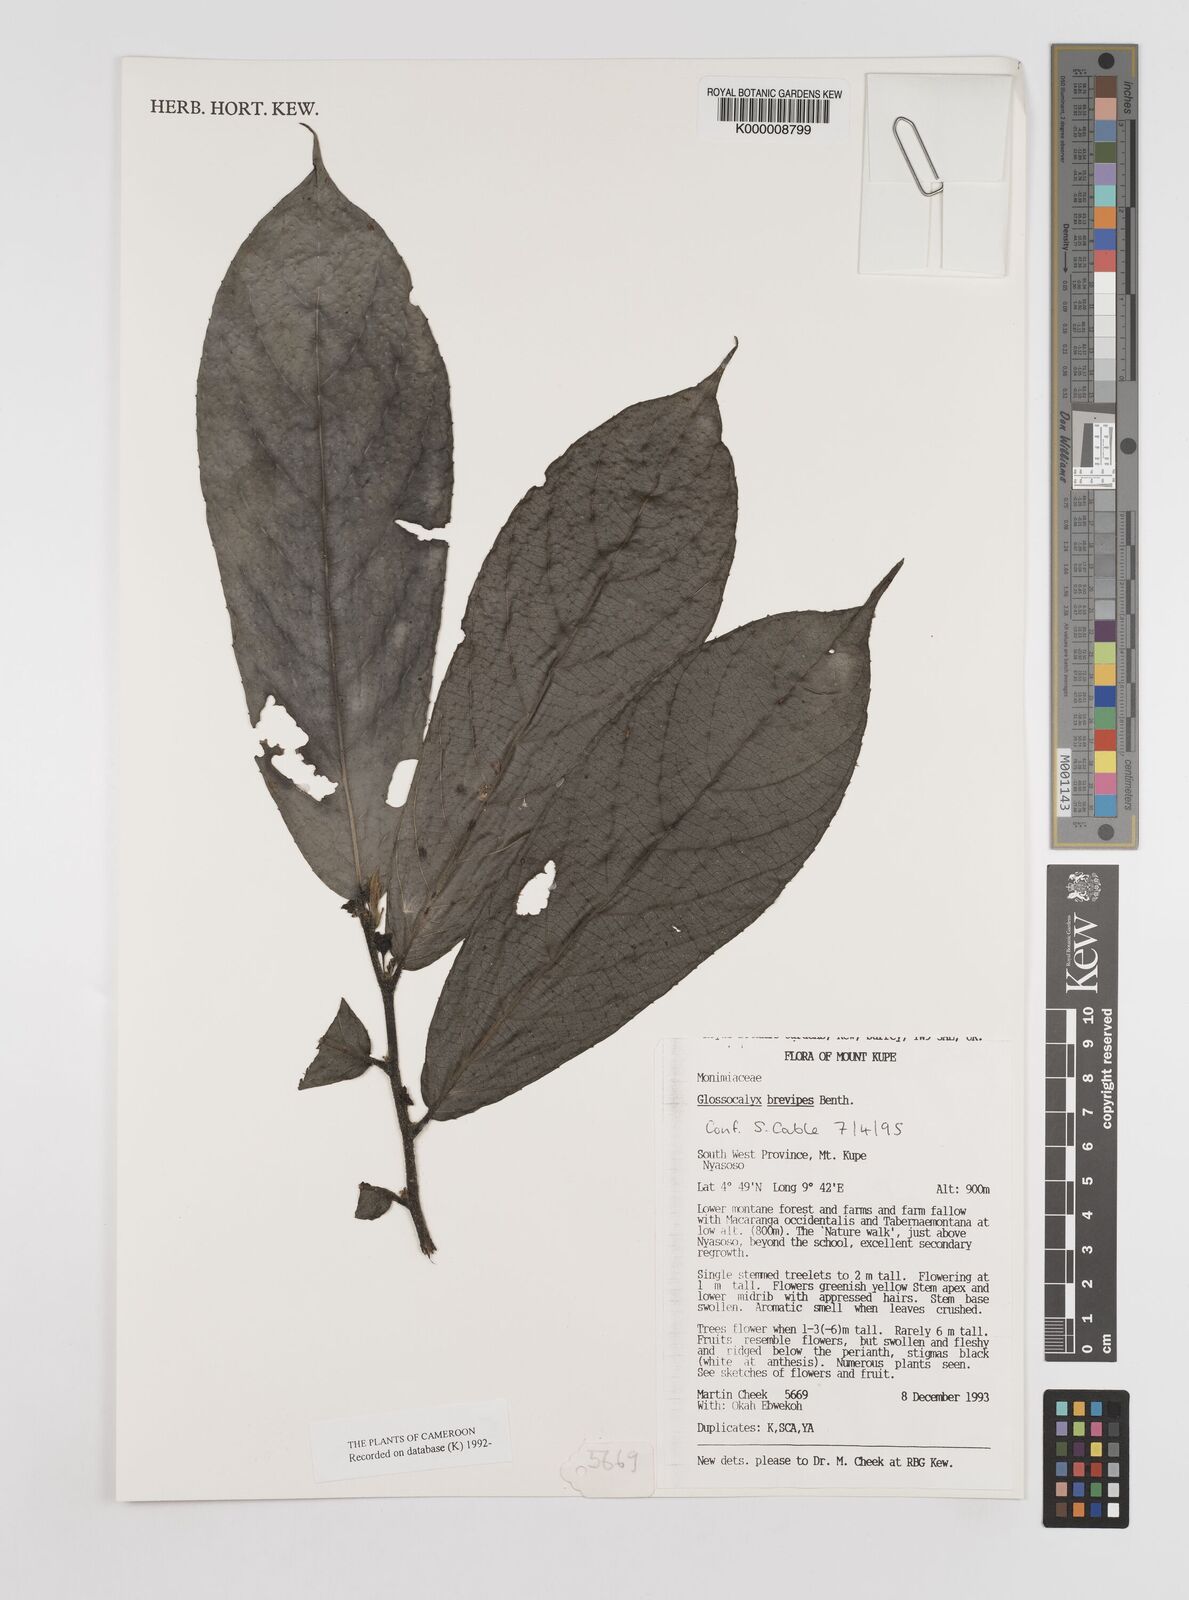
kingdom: Plantae
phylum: Tracheophyta
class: Magnoliopsida
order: Laurales
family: Siparunaceae
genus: Glossocalyx
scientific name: Glossocalyx brevipes
